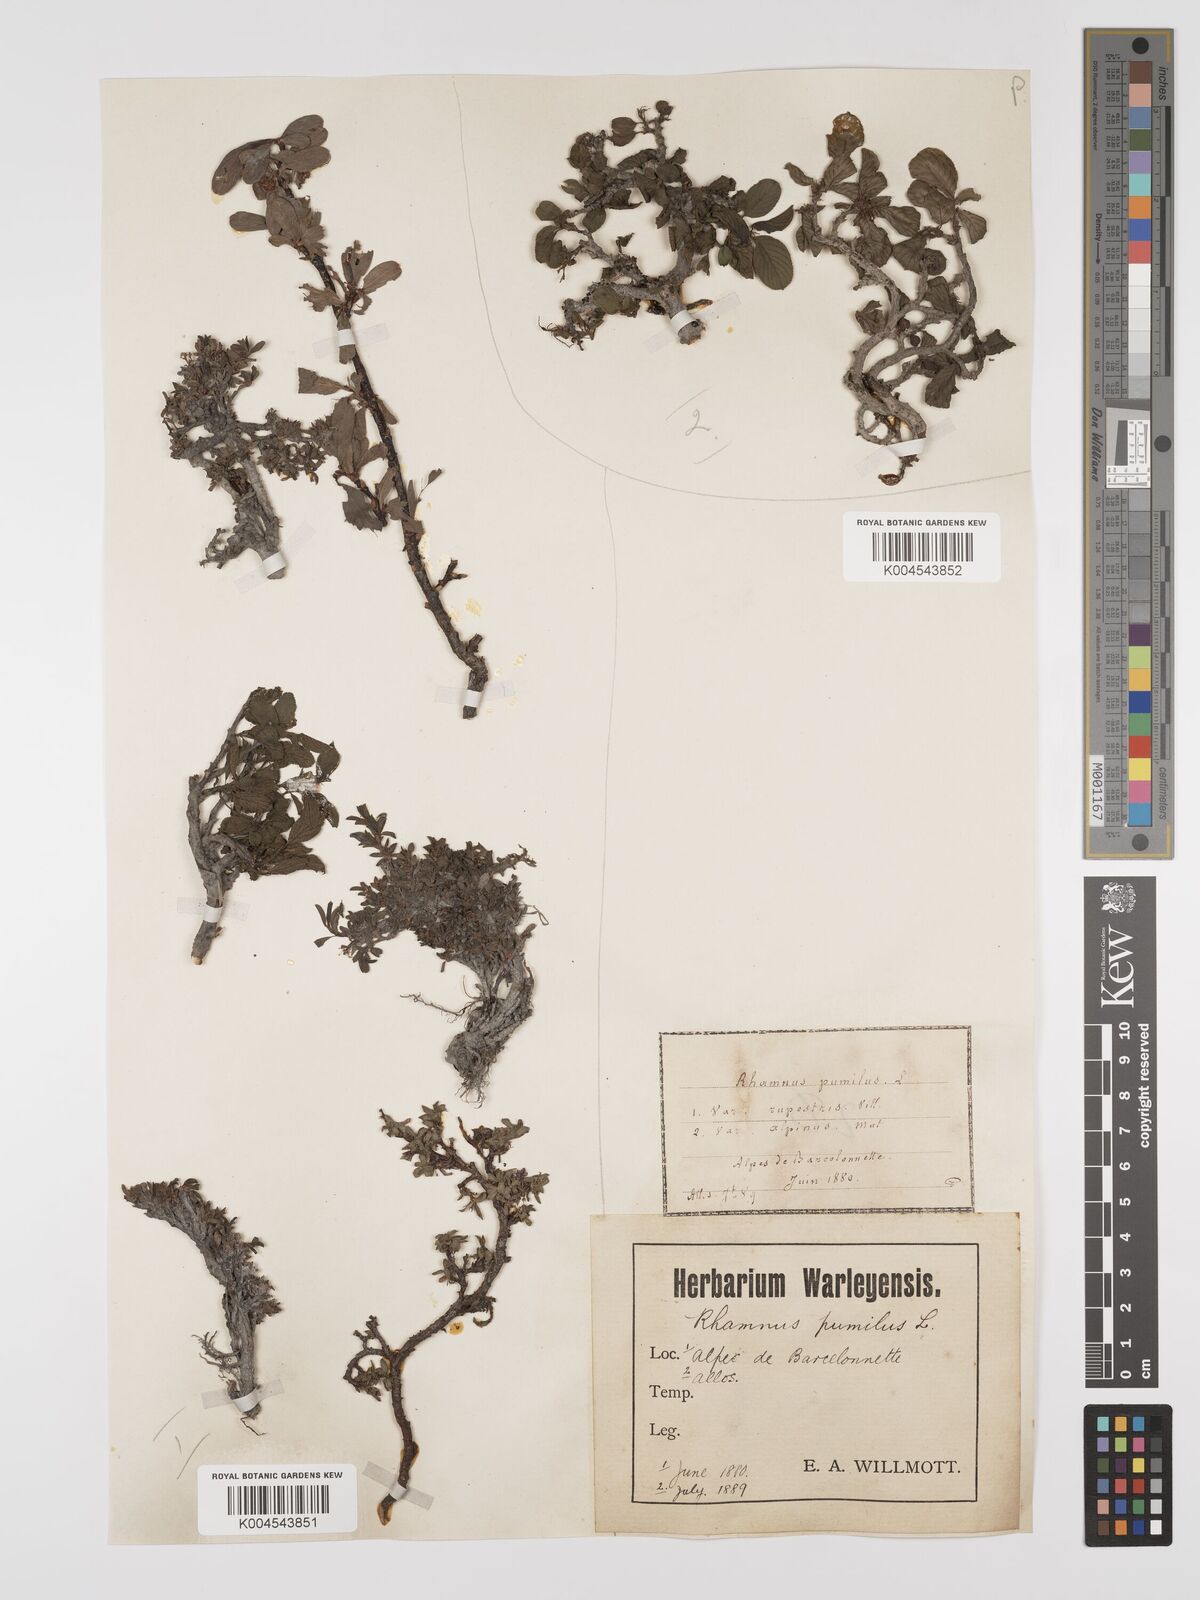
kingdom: Plantae
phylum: Tracheophyta
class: Magnoliopsida
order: Rosales
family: Rhamnaceae
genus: Rhamnus
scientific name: Rhamnus
